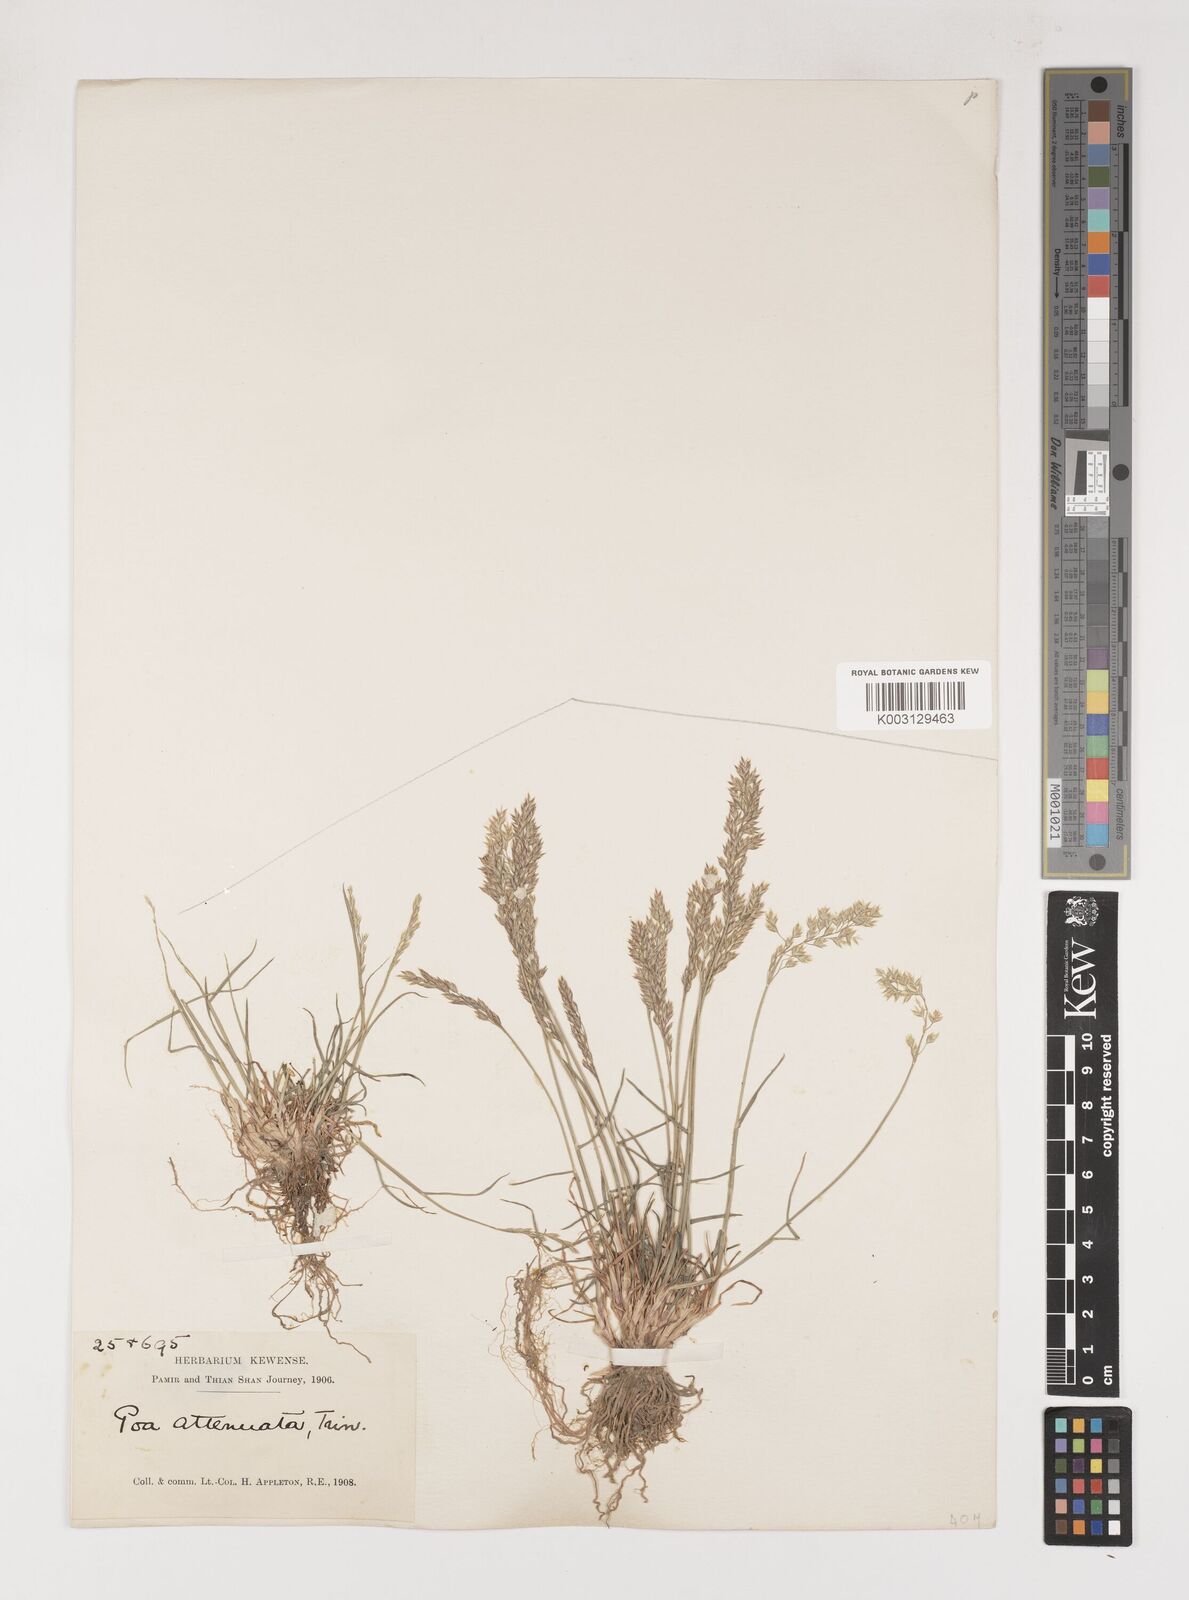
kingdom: Plantae
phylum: Tracheophyta
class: Liliopsida
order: Poales
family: Poaceae
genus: Poa
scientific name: Poa attenuata
